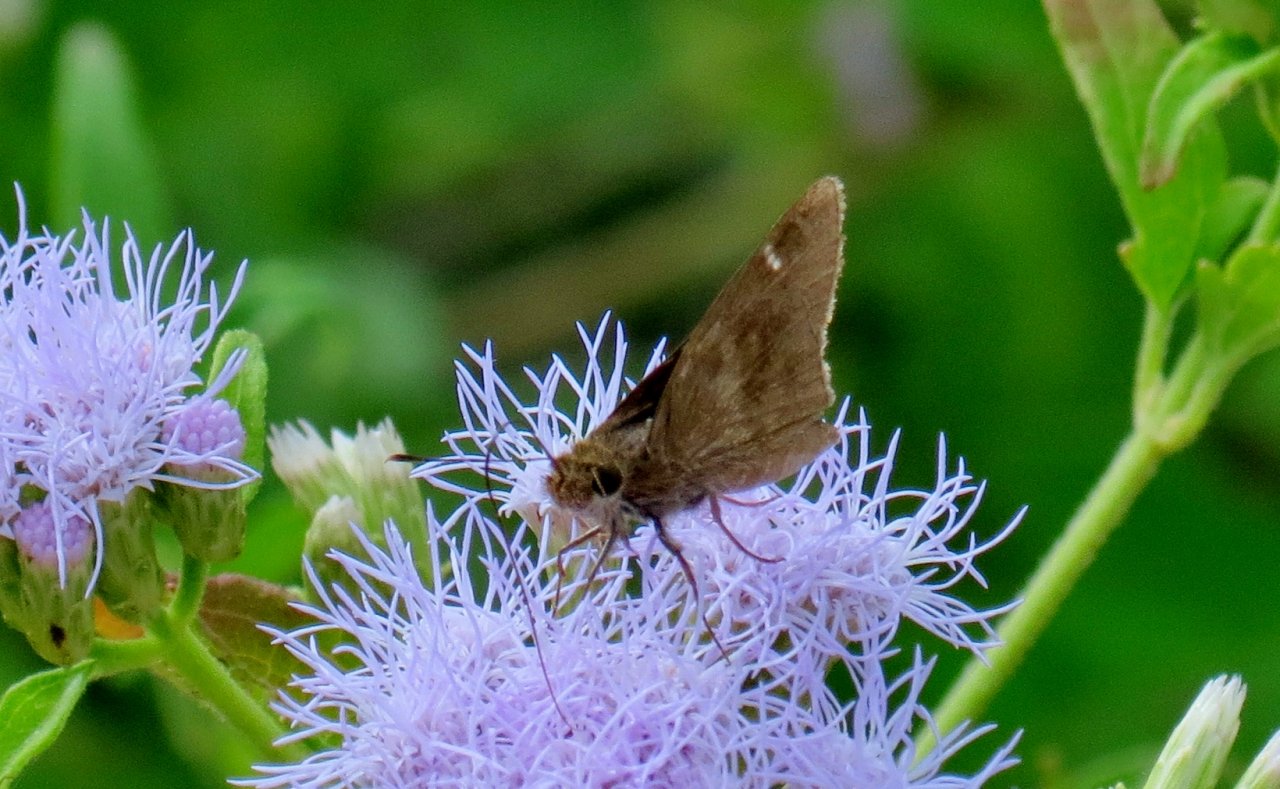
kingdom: Animalia
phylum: Arthropoda
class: Insecta
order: Lepidoptera
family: Hesperiidae
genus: Cymaenes
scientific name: Cymaenes odilia
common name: Fawn-spotted Skipper
